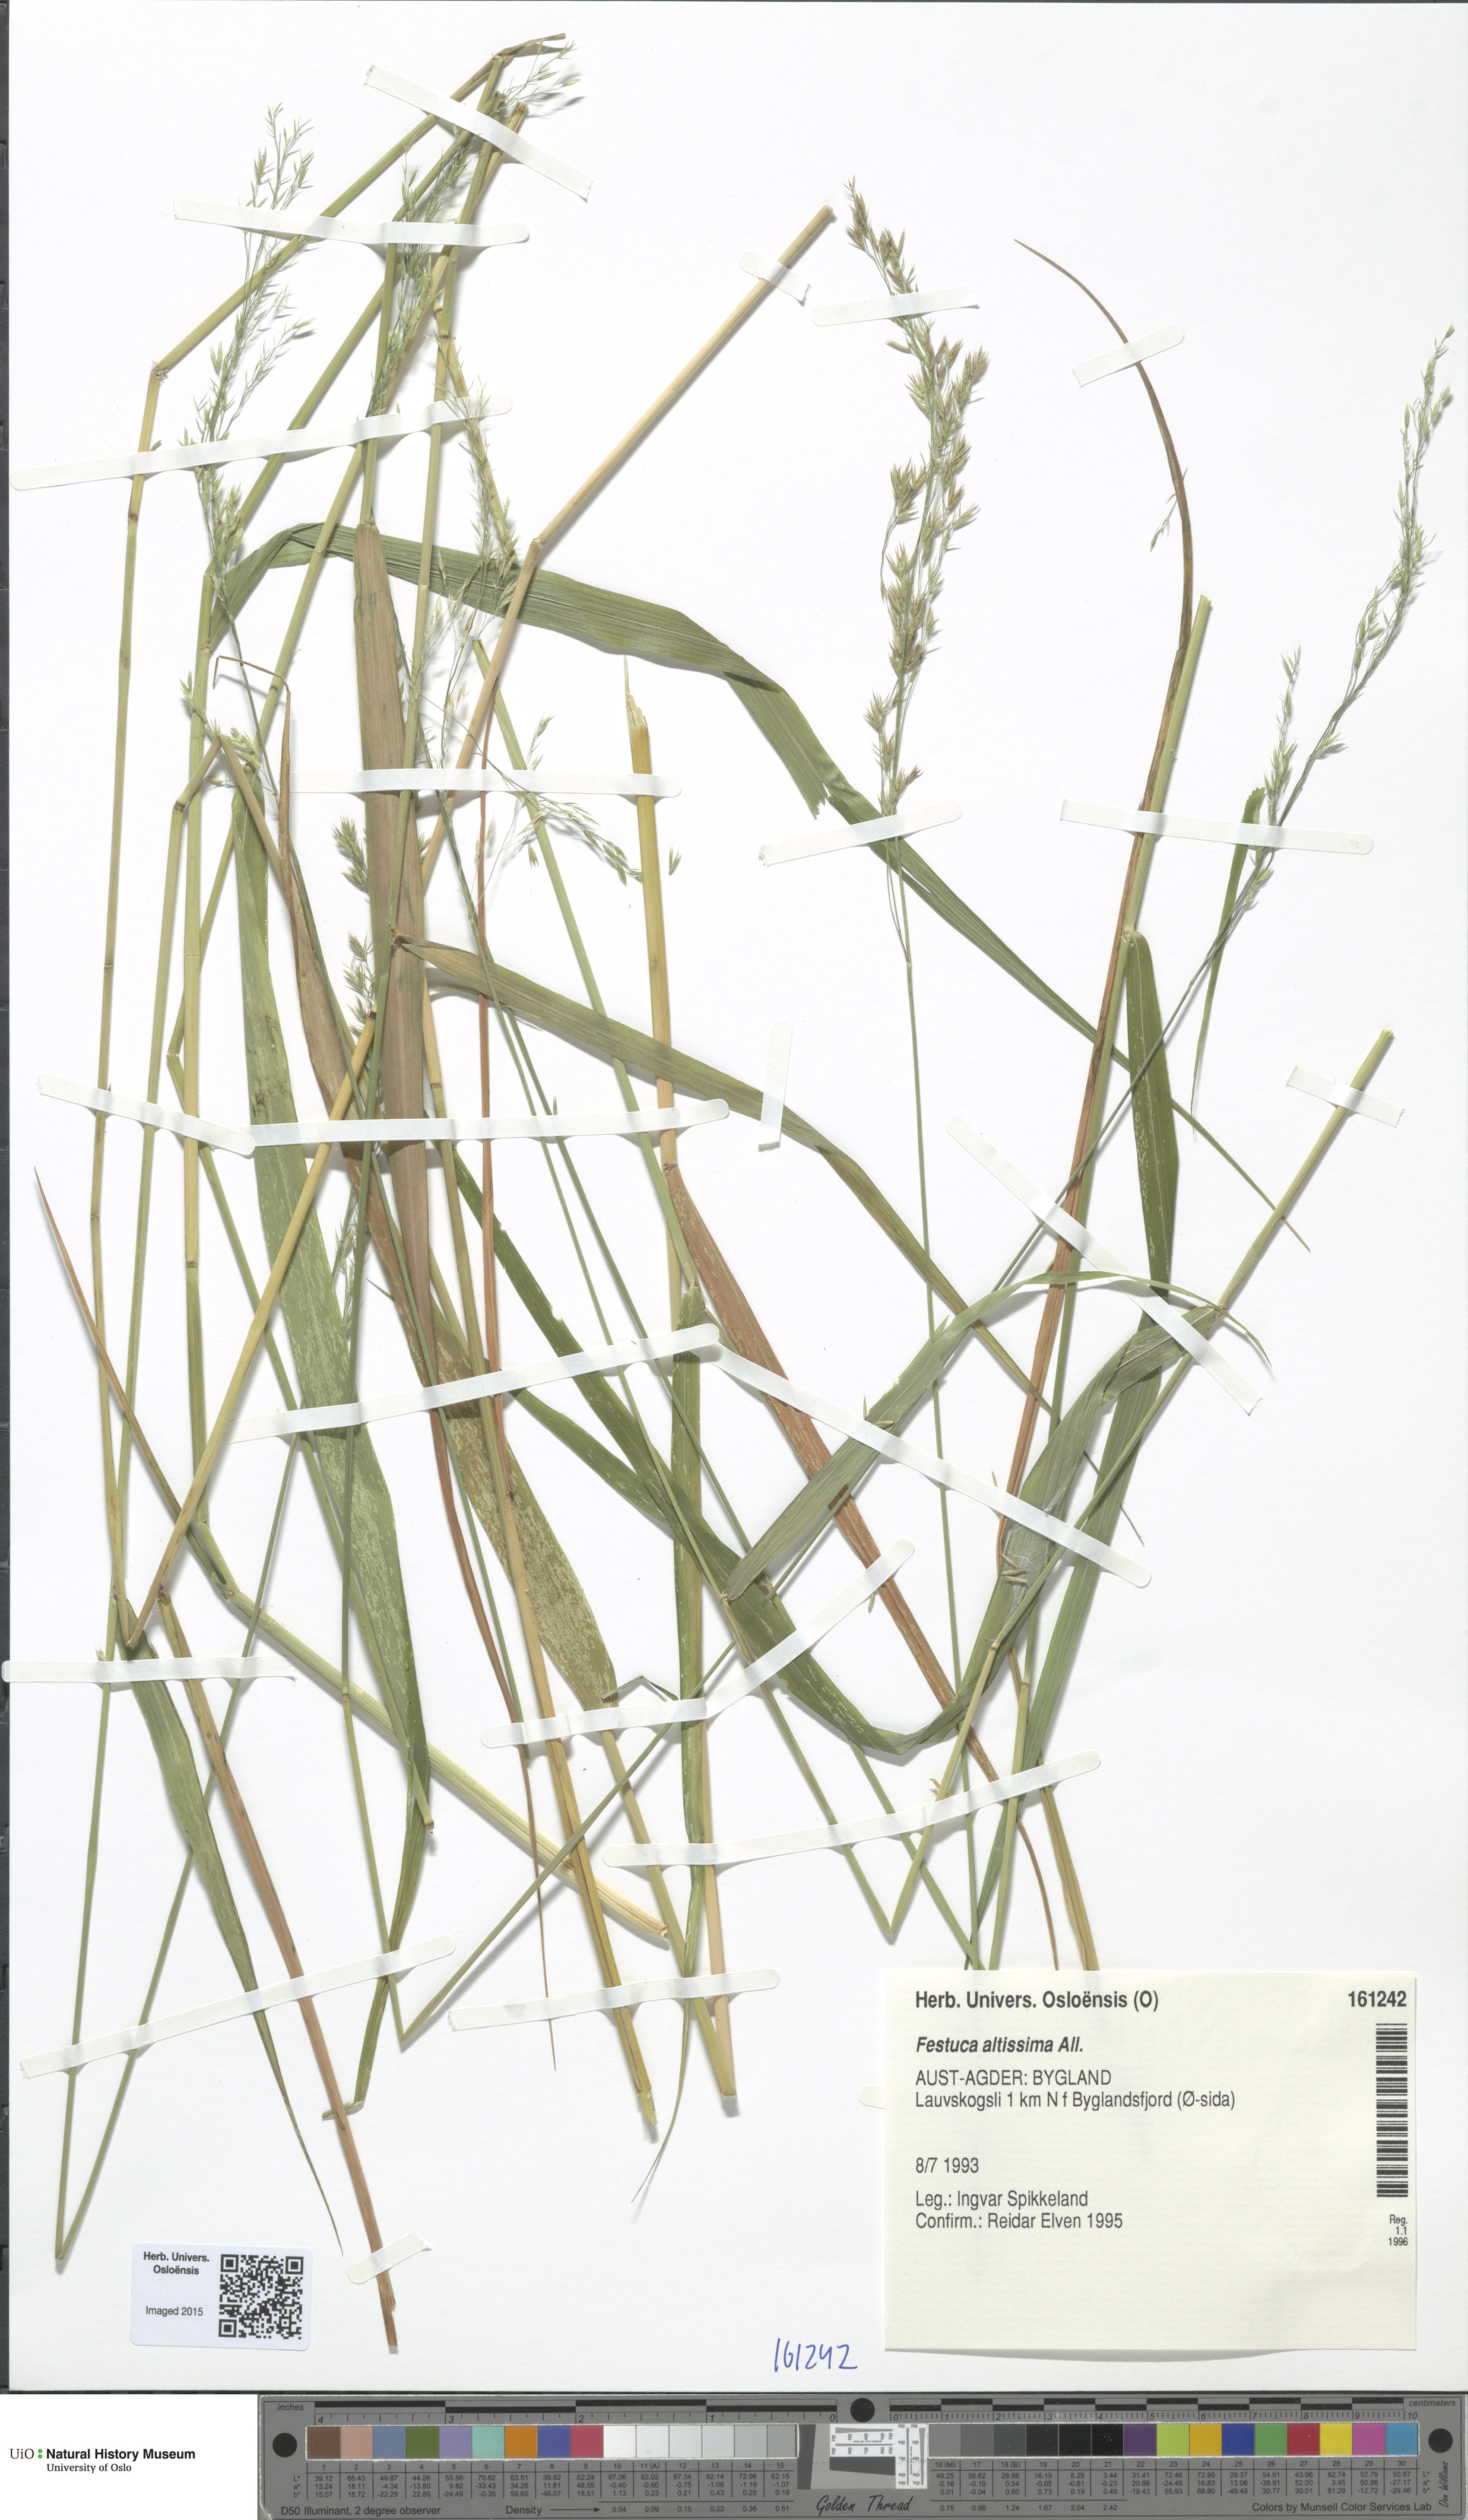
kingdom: Plantae
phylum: Tracheophyta
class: Liliopsida
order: Poales
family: Poaceae
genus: Festuca
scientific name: Festuca altissima
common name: Wood fescue
